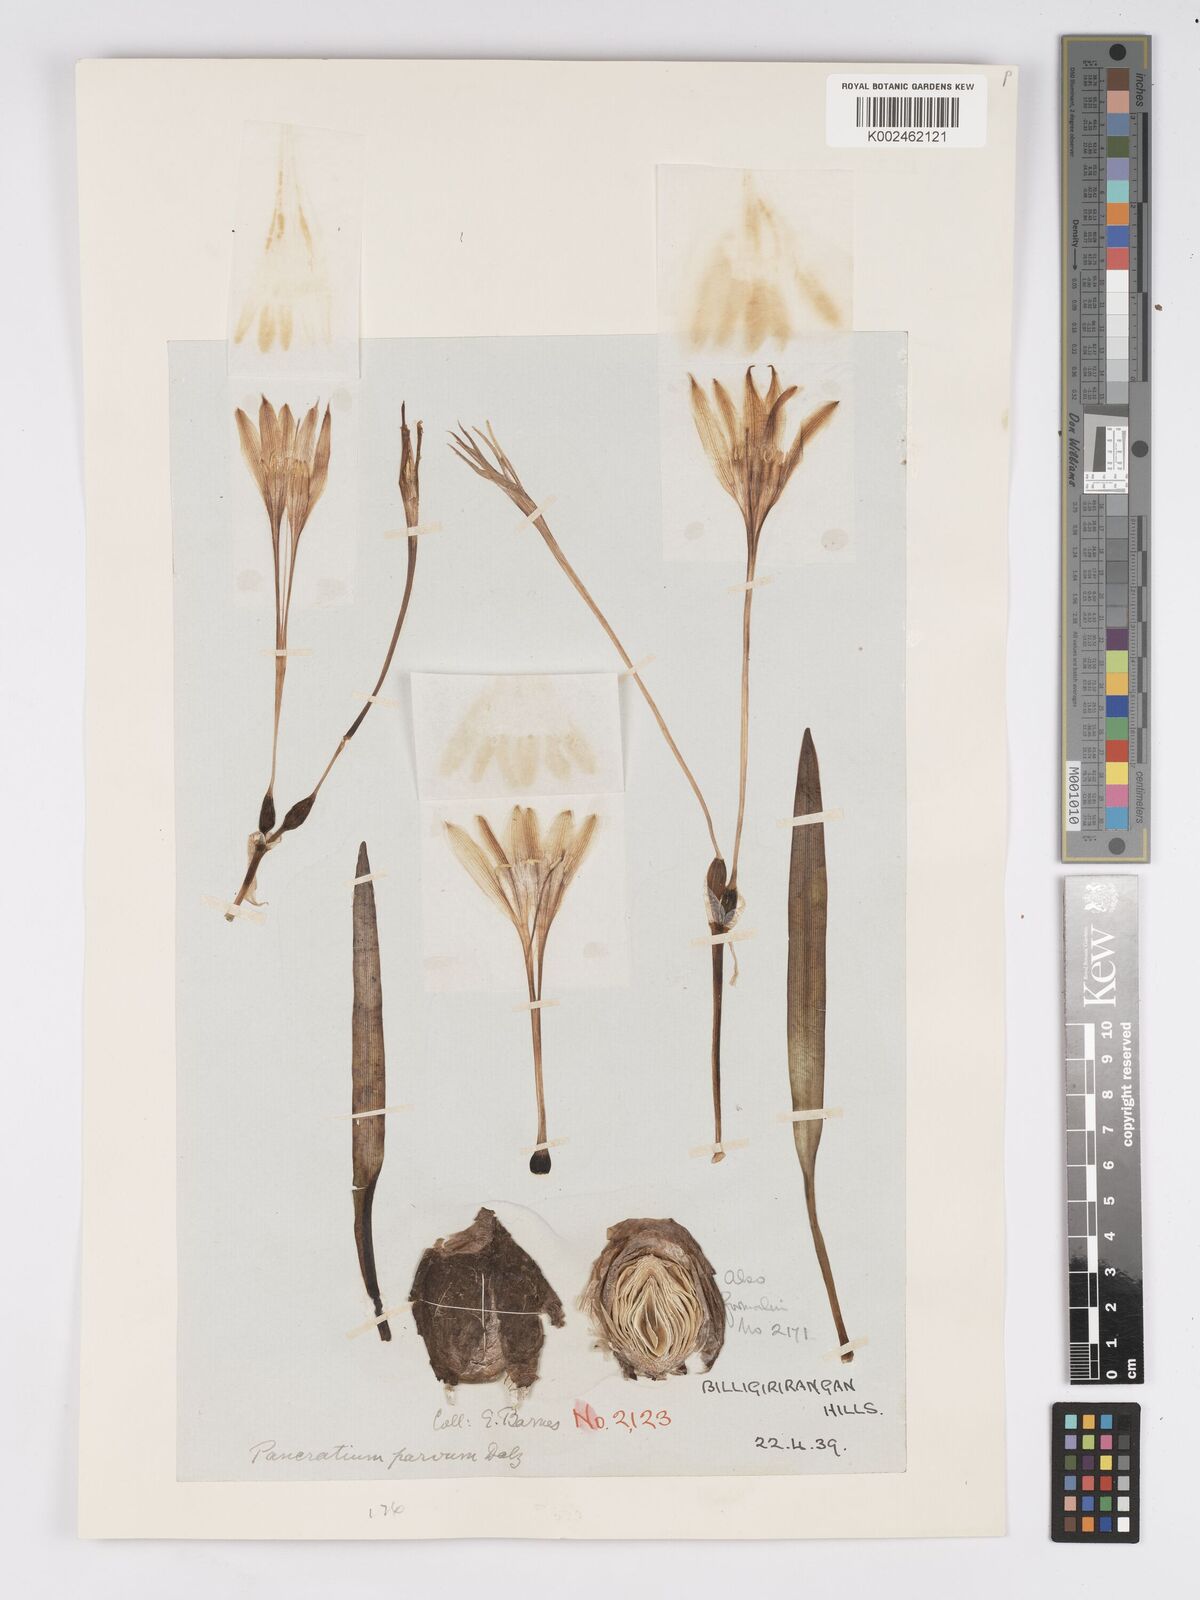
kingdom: Plantae
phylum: Tracheophyta
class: Liliopsida
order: Asparagales
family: Amaryllidaceae
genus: Pancratium
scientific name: Pancratium parvum
